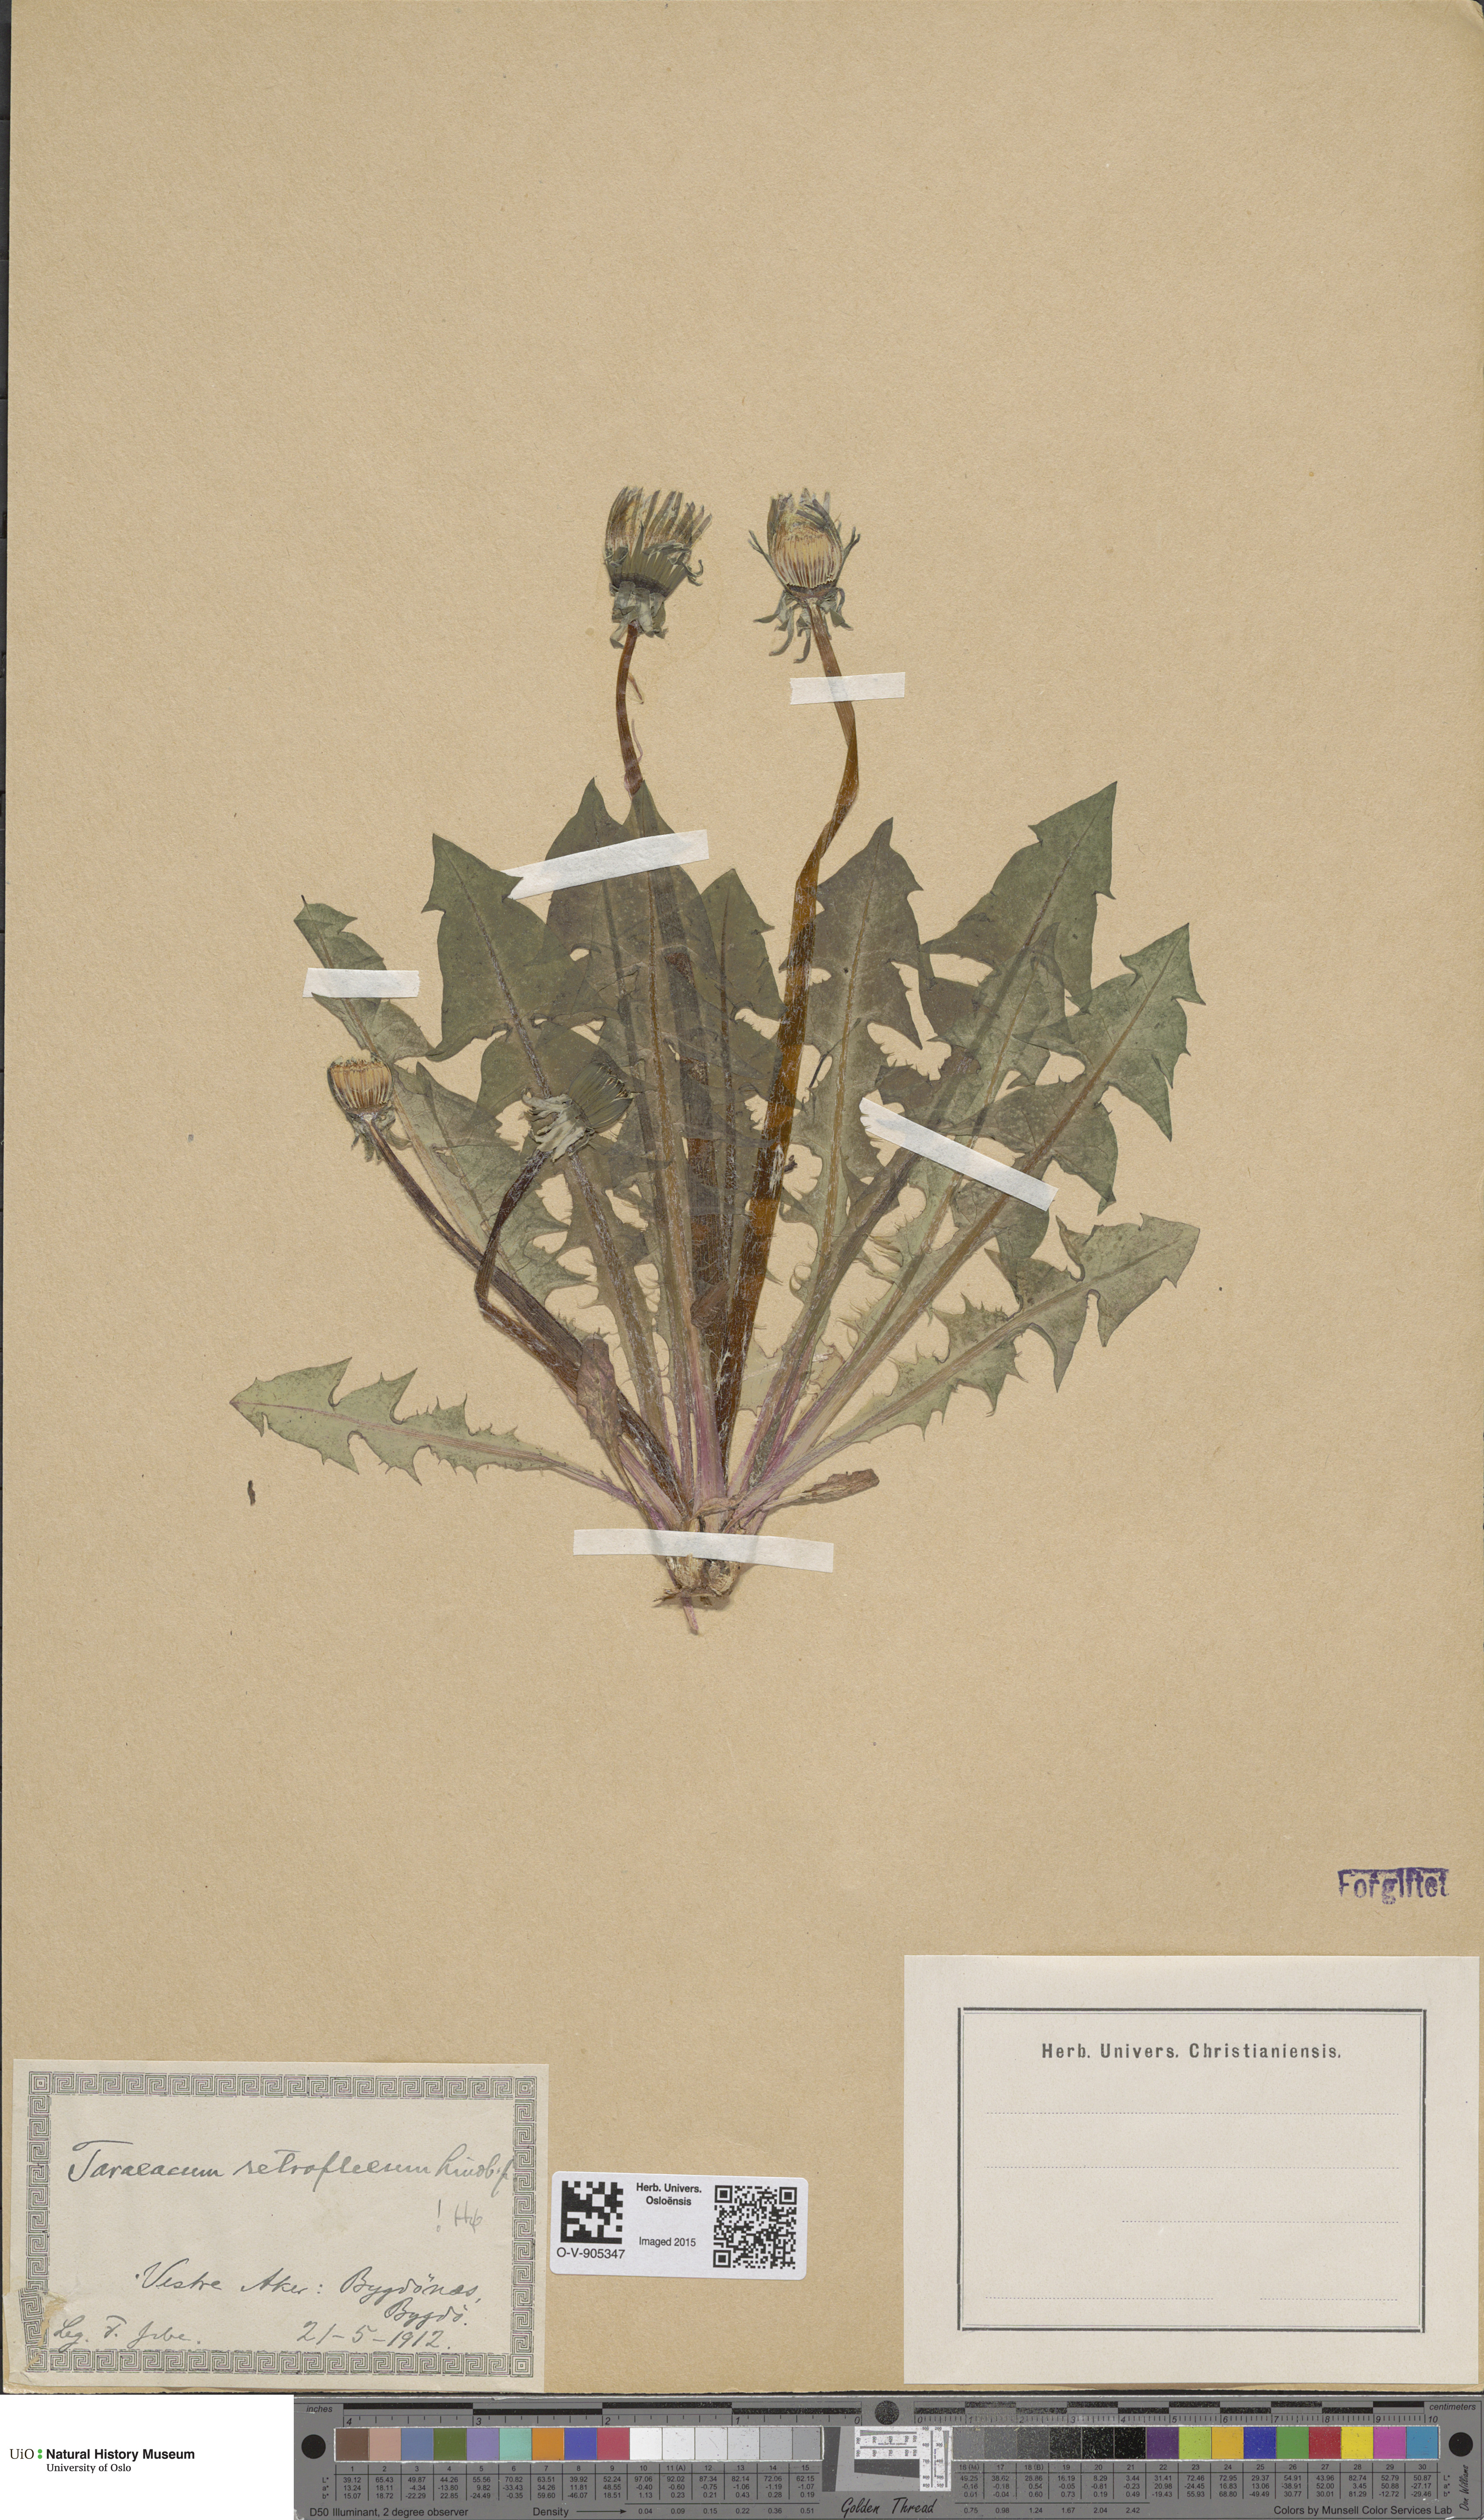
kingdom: Plantae
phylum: Tracheophyta
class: Magnoliopsida
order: Asterales
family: Asteraceae
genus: Taraxacum
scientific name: Taraxacum retroflexum
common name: Reflexed-lobed dandelion
